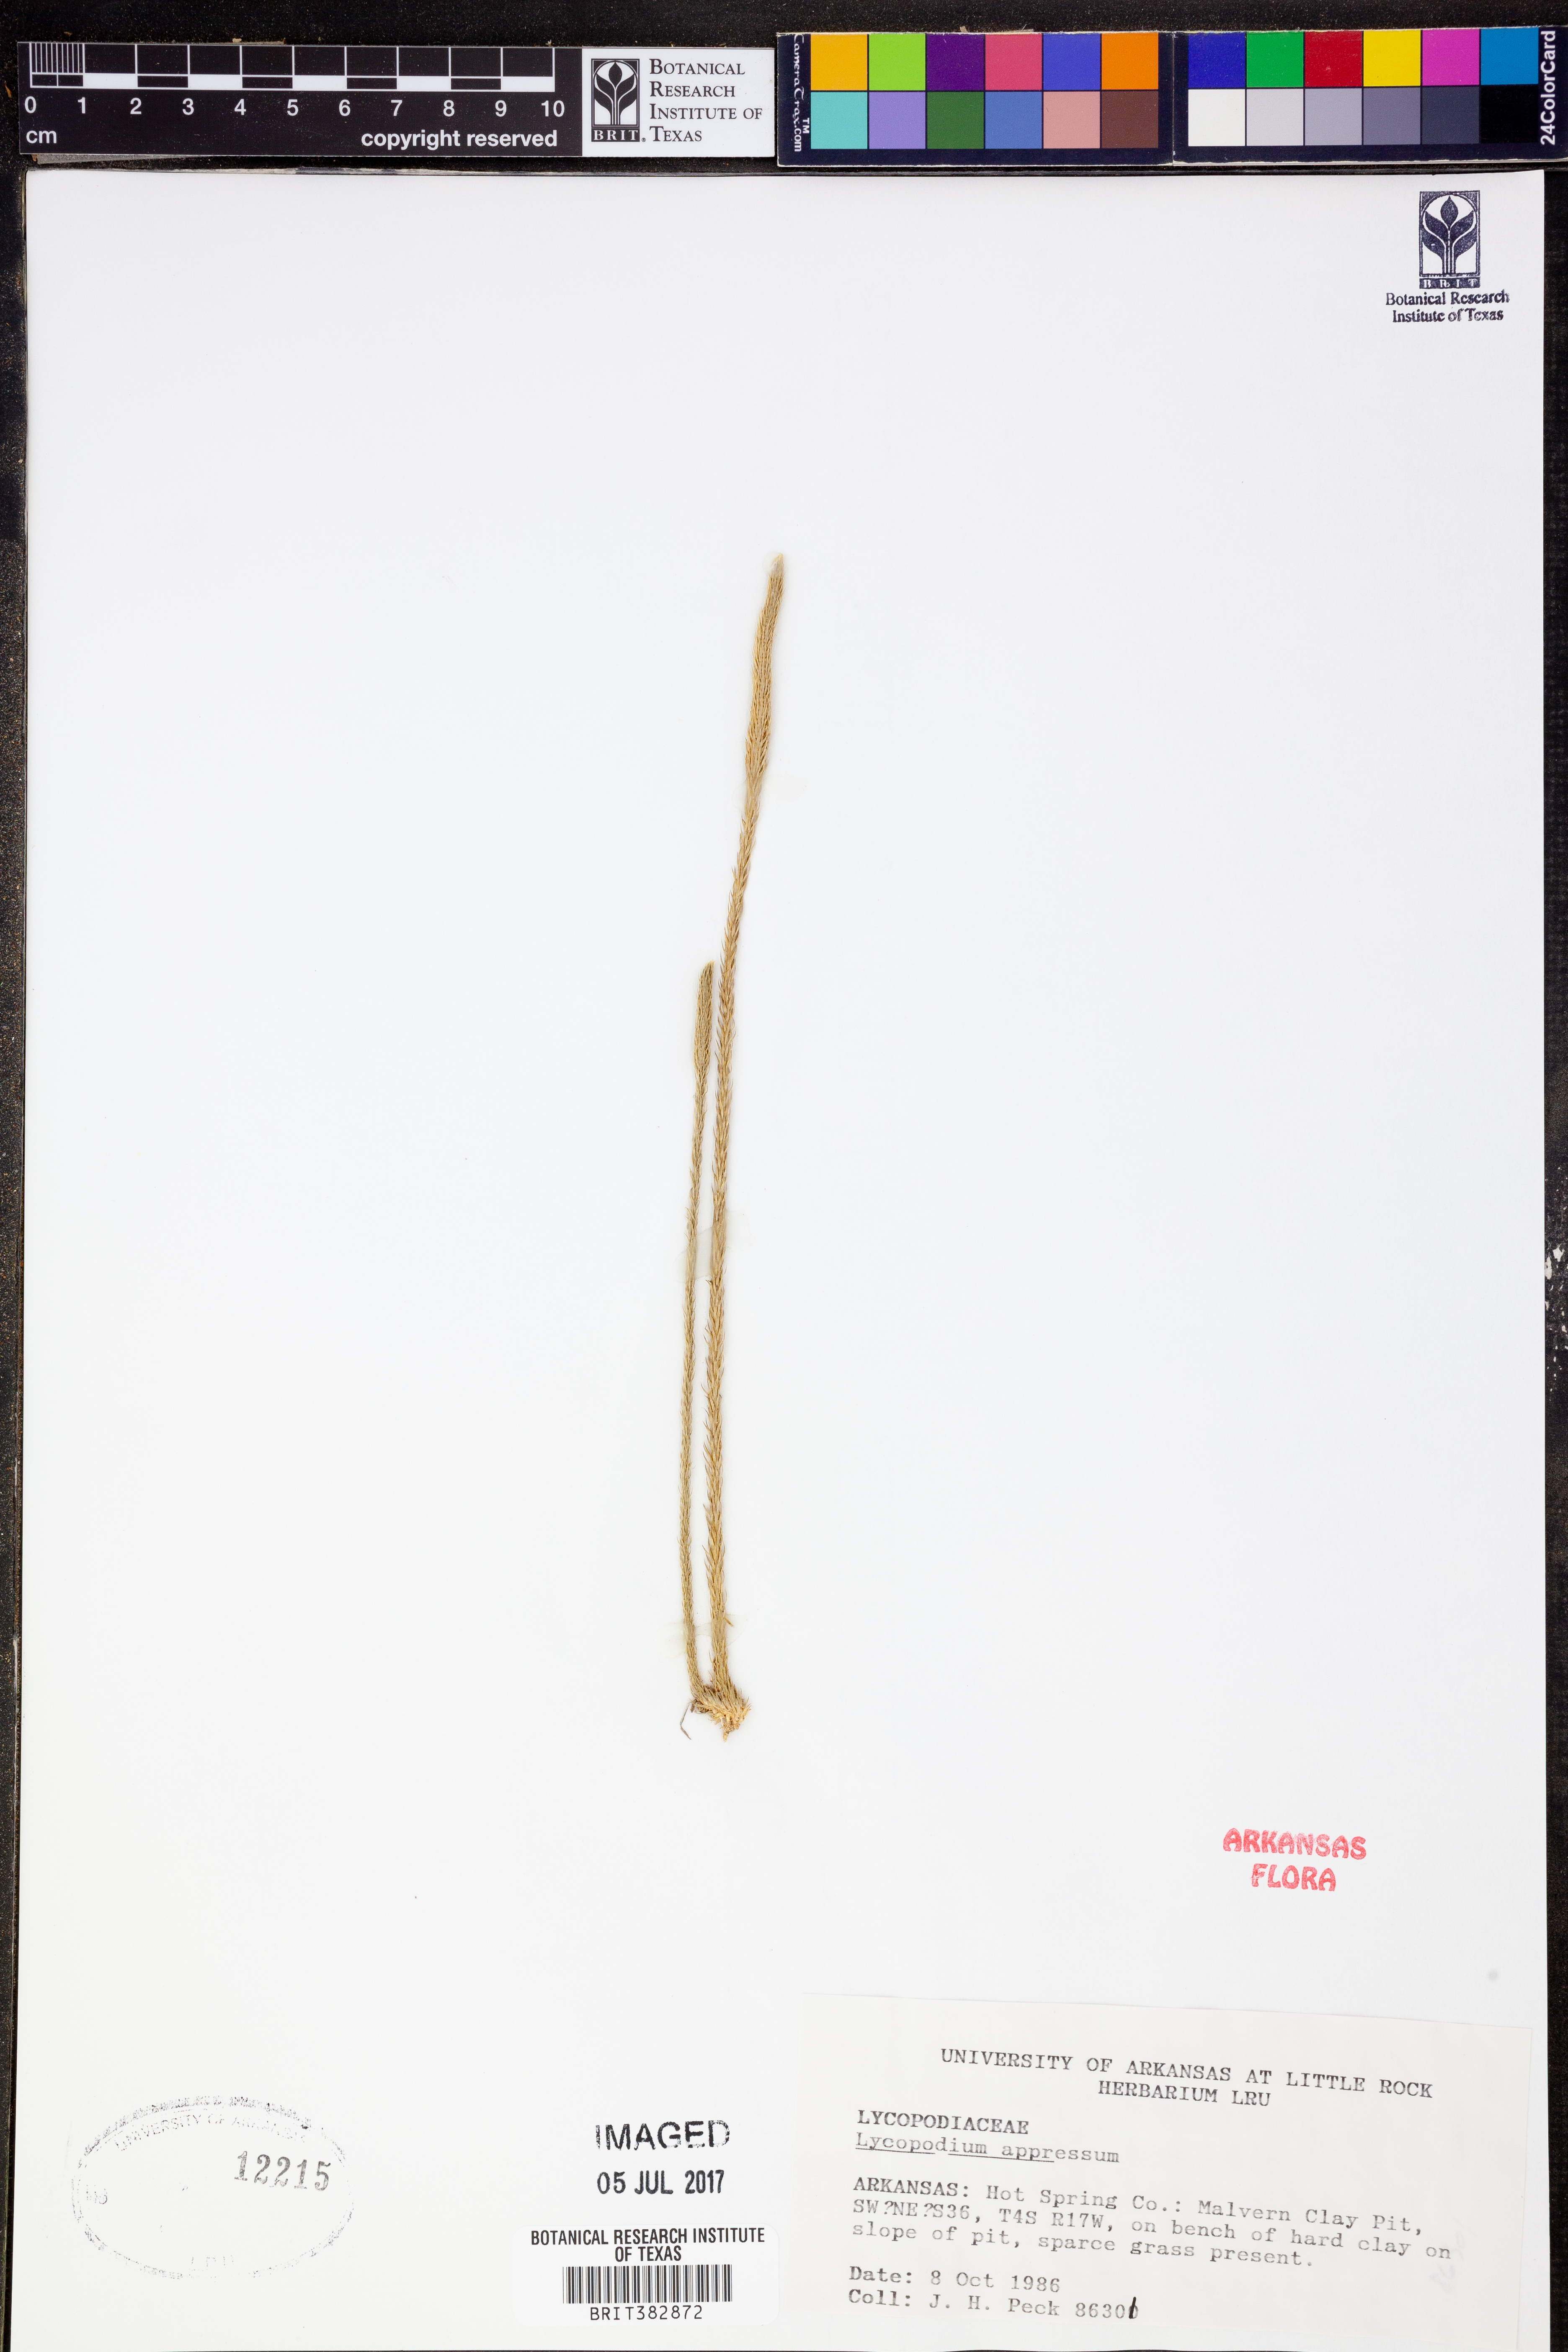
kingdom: Plantae
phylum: Tracheophyta
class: Lycopodiopsida
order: Lycopodiales
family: Lycopodiaceae
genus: Lycopodiella
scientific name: Lycopodiella appressa
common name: Appressed bog clubmoss
